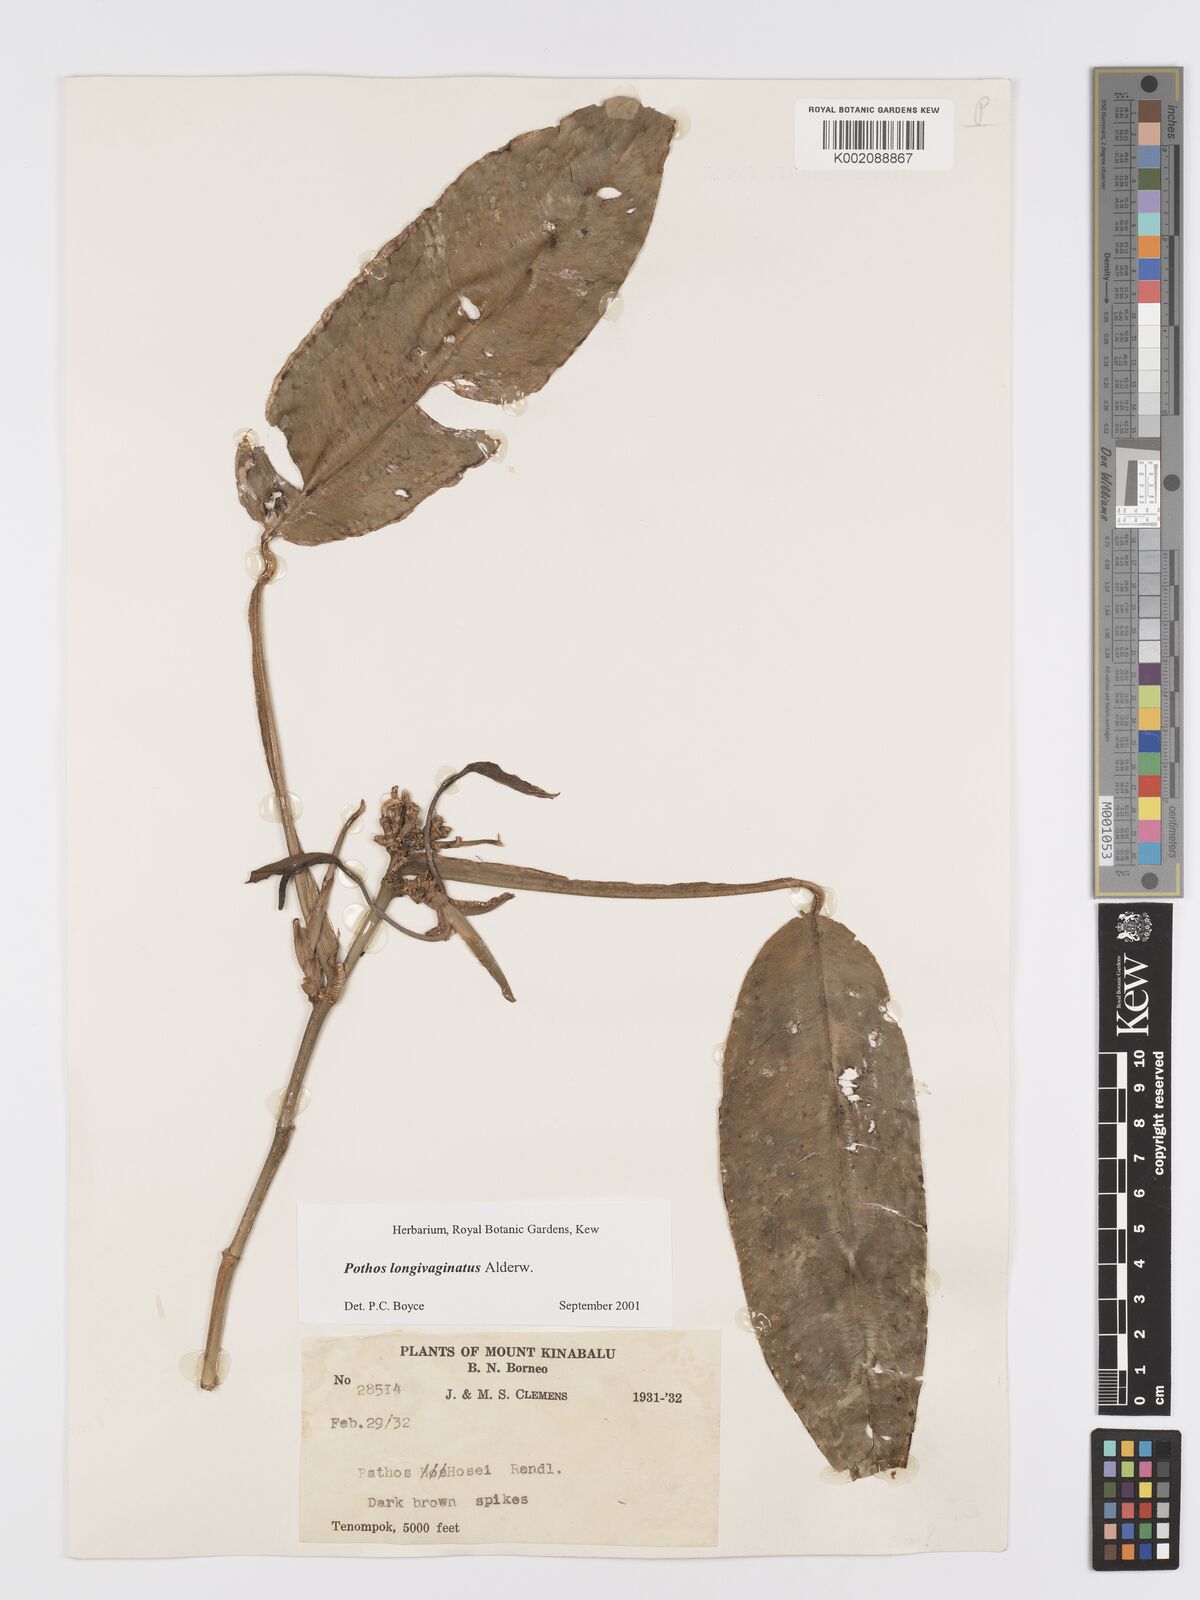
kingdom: Plantae
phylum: Tracheophyta
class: Liliopsida
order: Alismatales
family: Araceae
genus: Pothos
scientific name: Pothos longivaginatus
